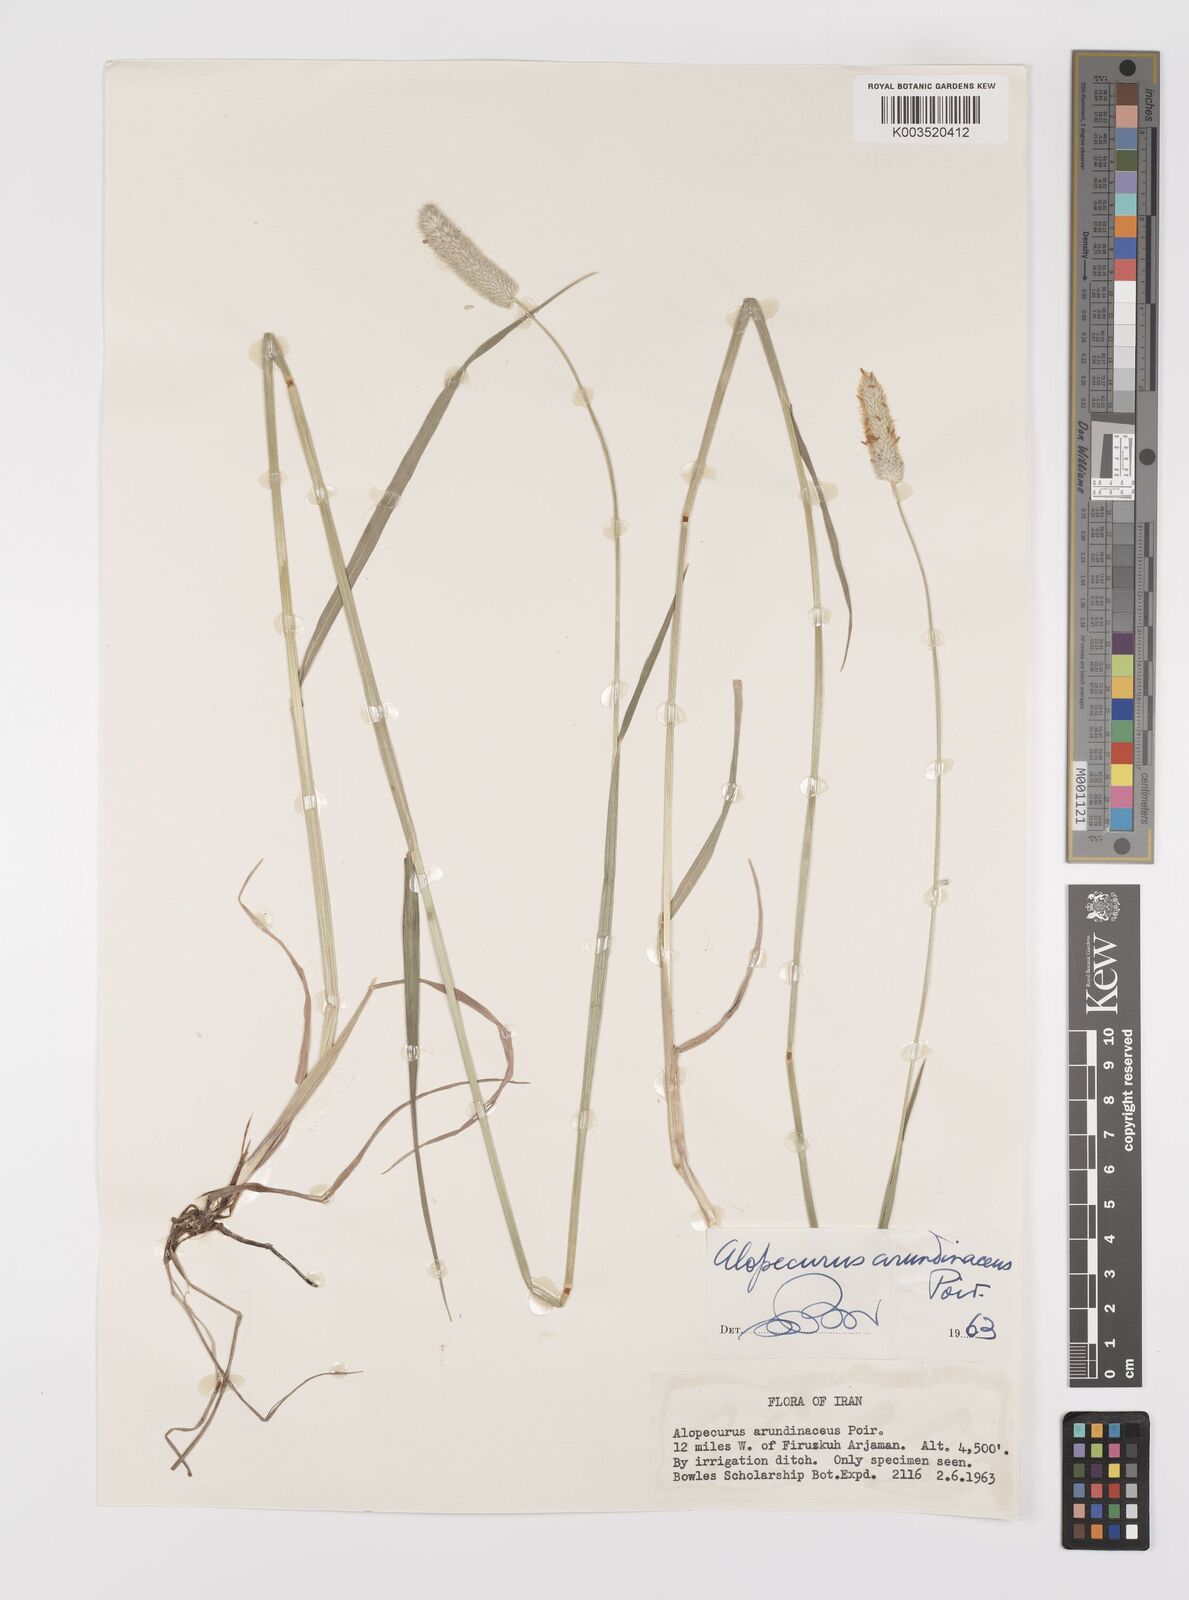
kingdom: Plantae
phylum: Tracheophyta
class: Liliopsida
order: Poales
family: Poaceae
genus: Alopecurus
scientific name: Alopecurus arundinaceus
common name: Creeping meadow foxtail
